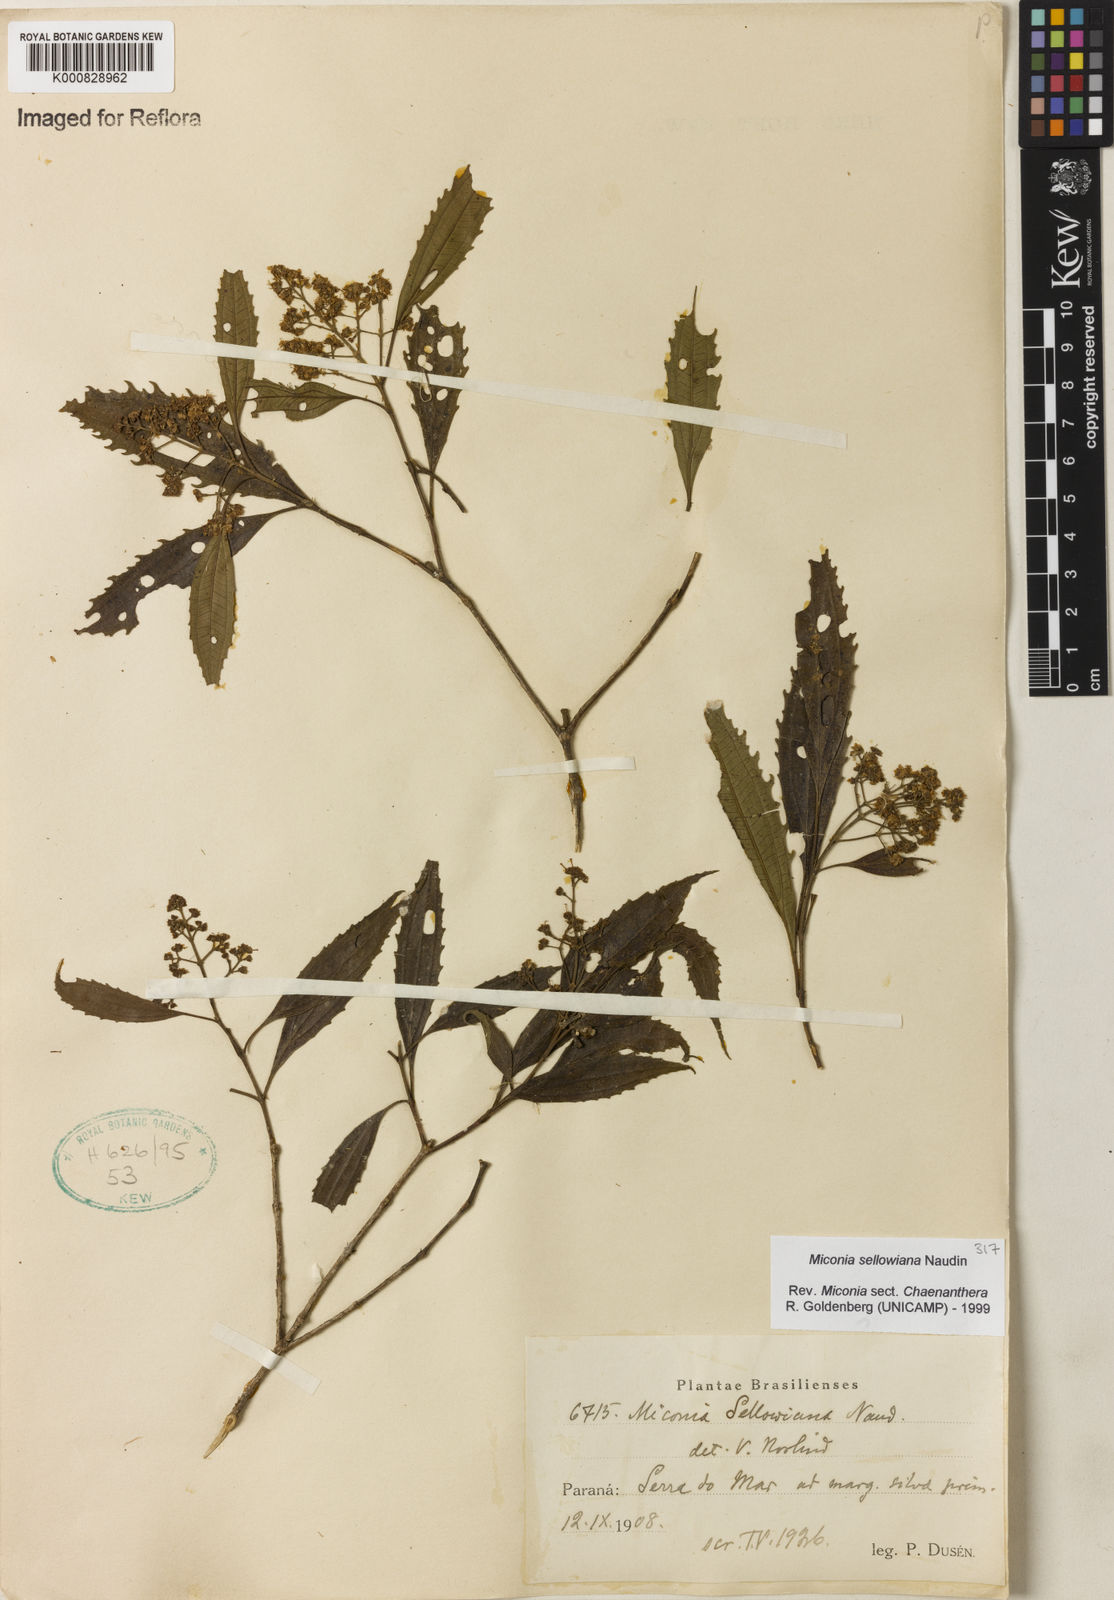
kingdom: Plantae
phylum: Tracheophyta
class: Magnoliopsida
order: Myrtales
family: Melastomataceae
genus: Miconia
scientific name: Miconia sellowiana
